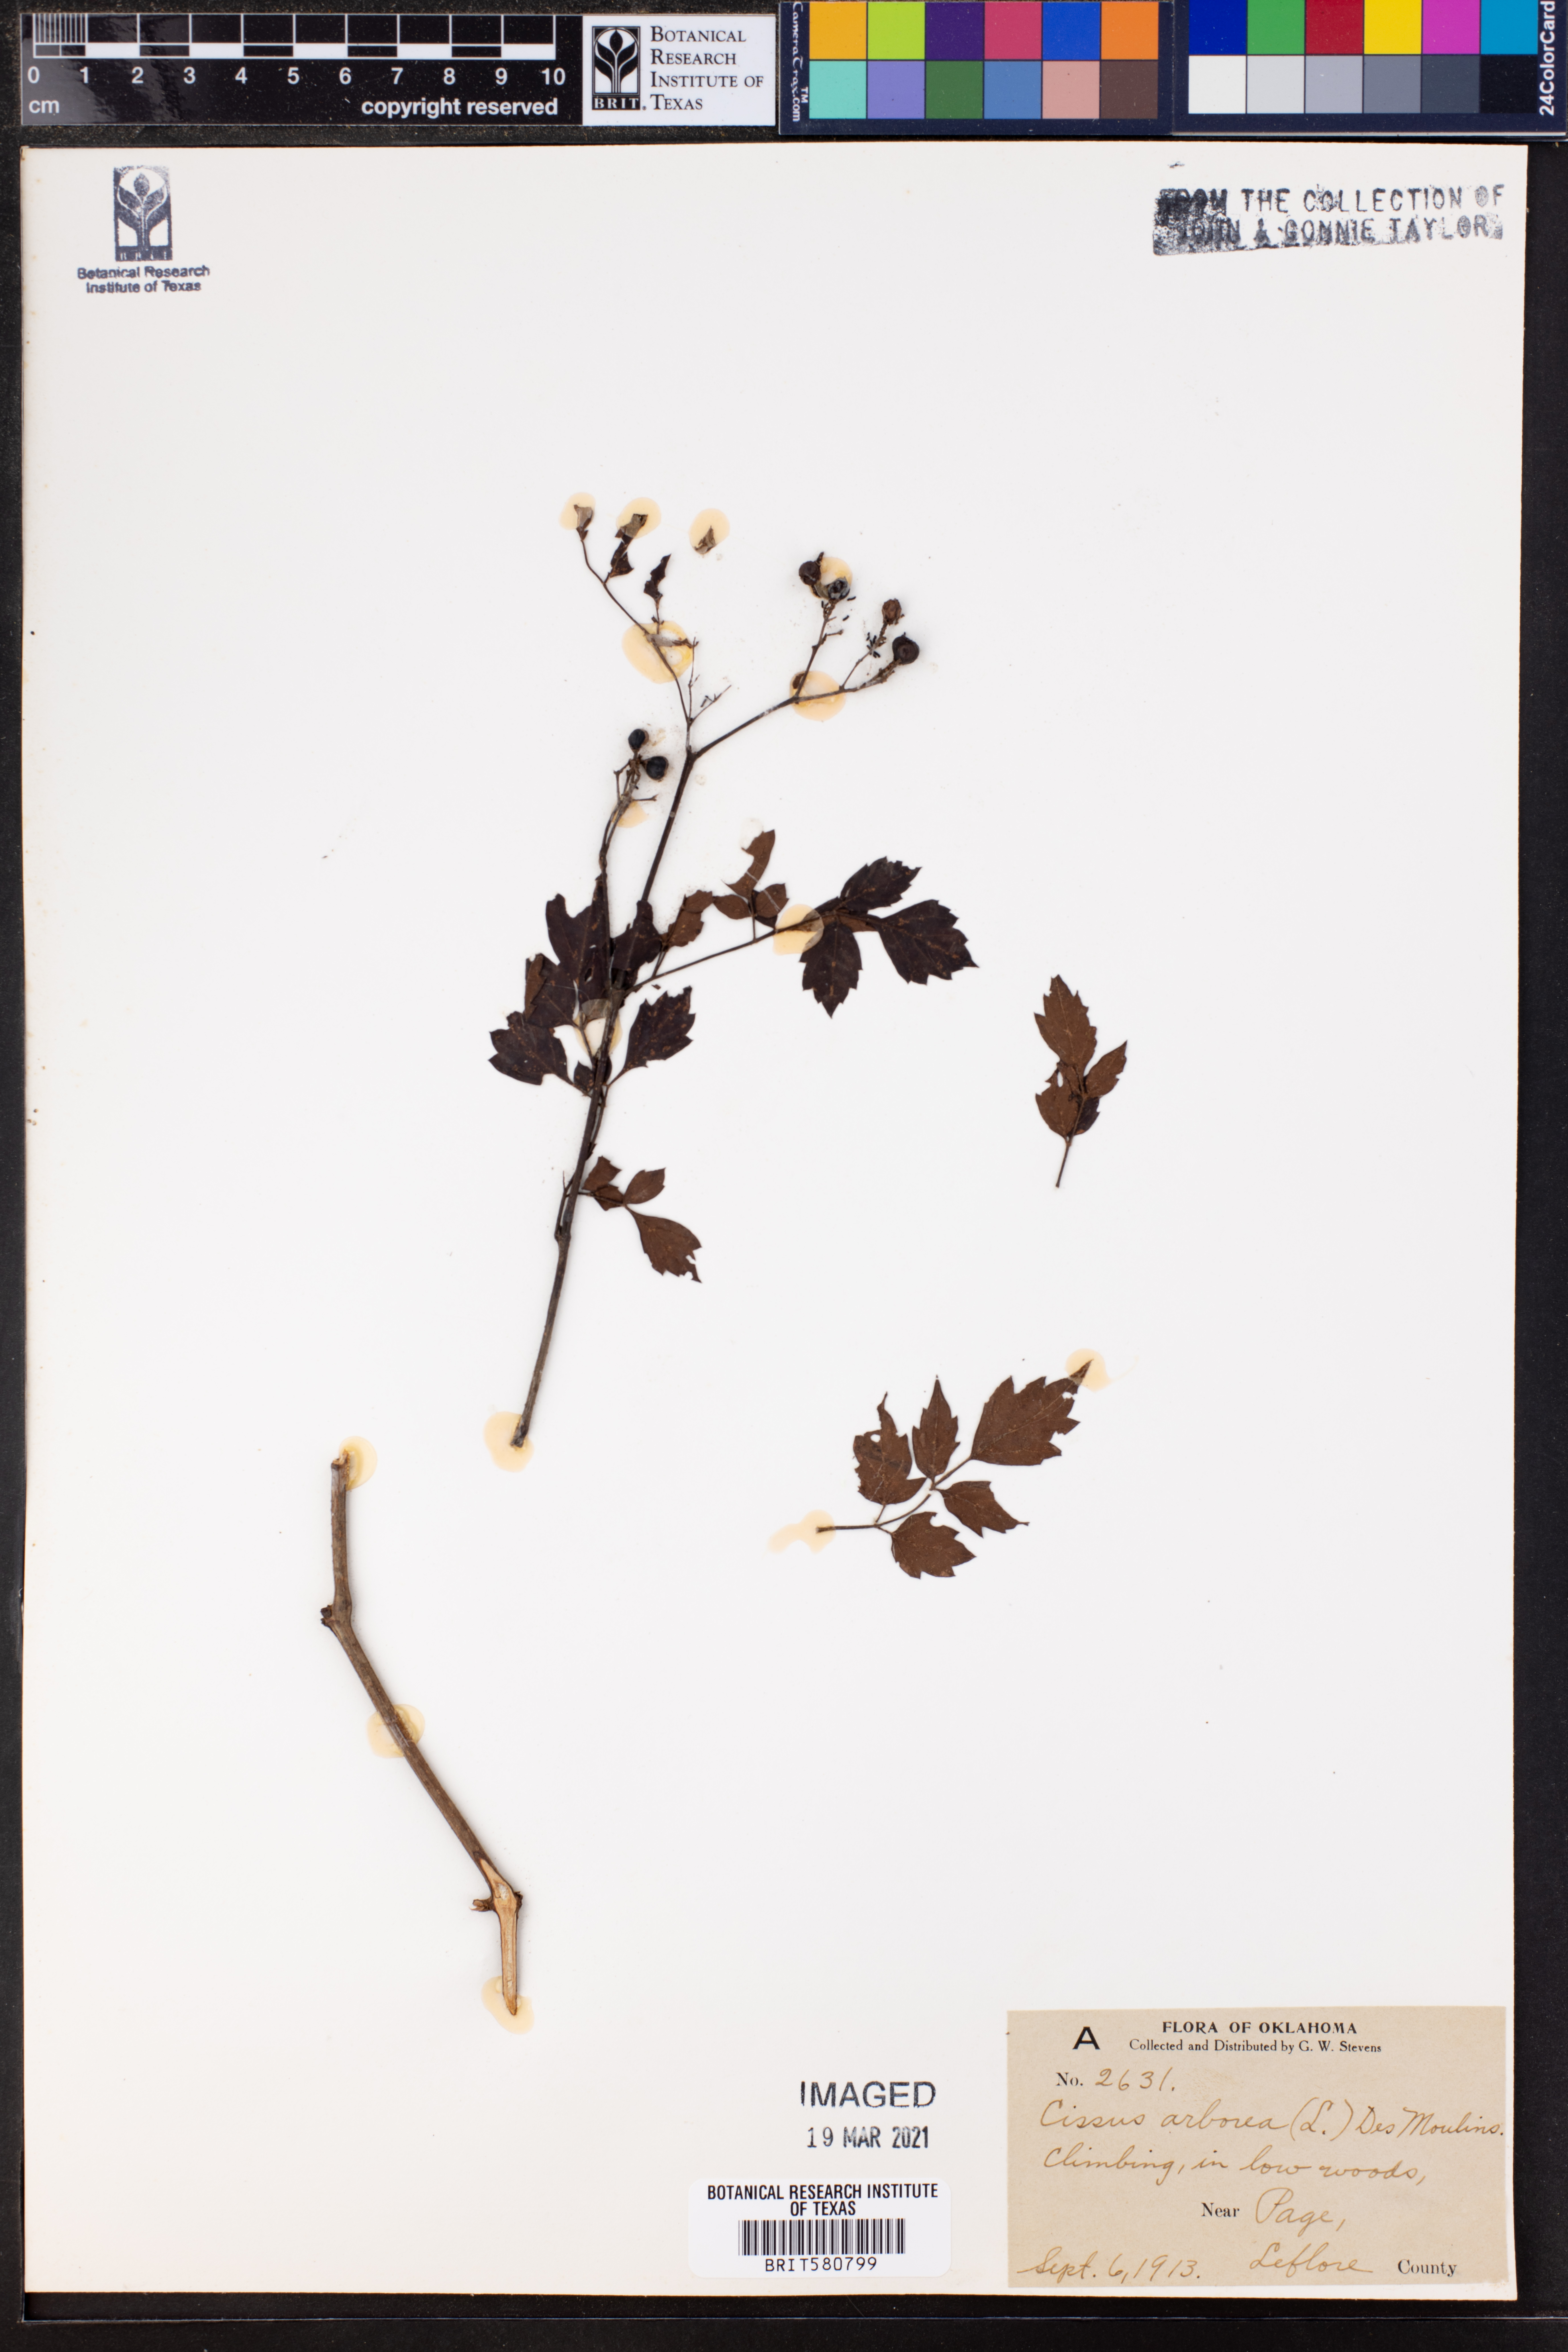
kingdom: Plantae
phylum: Tracheophyta
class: Magnoliopsida
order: Vitales
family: Vitaceae
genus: Nekemias
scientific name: Nekemias arborea
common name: Peppervine
